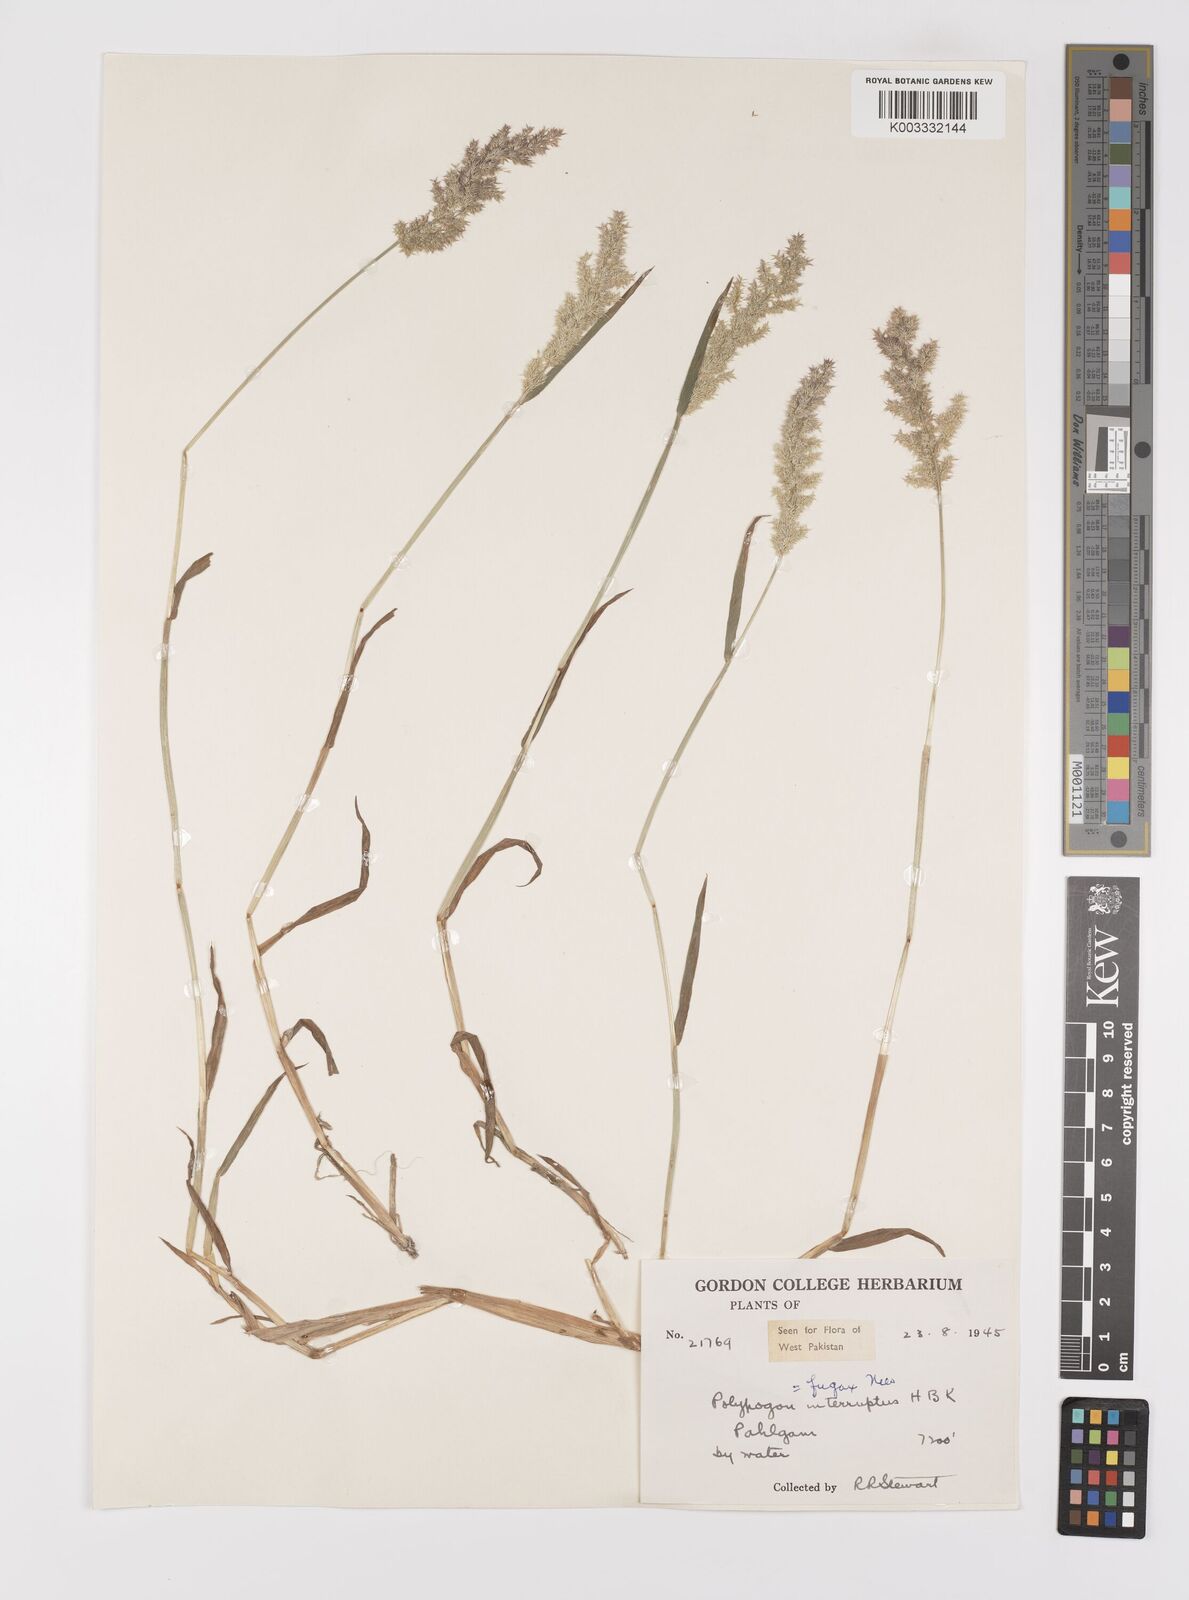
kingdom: Plantae
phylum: Tracheophyta
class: Liliopsida
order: Poales
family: Poaceae
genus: Polypogon
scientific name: Polypogon fugax
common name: Asia minor bluegrass
